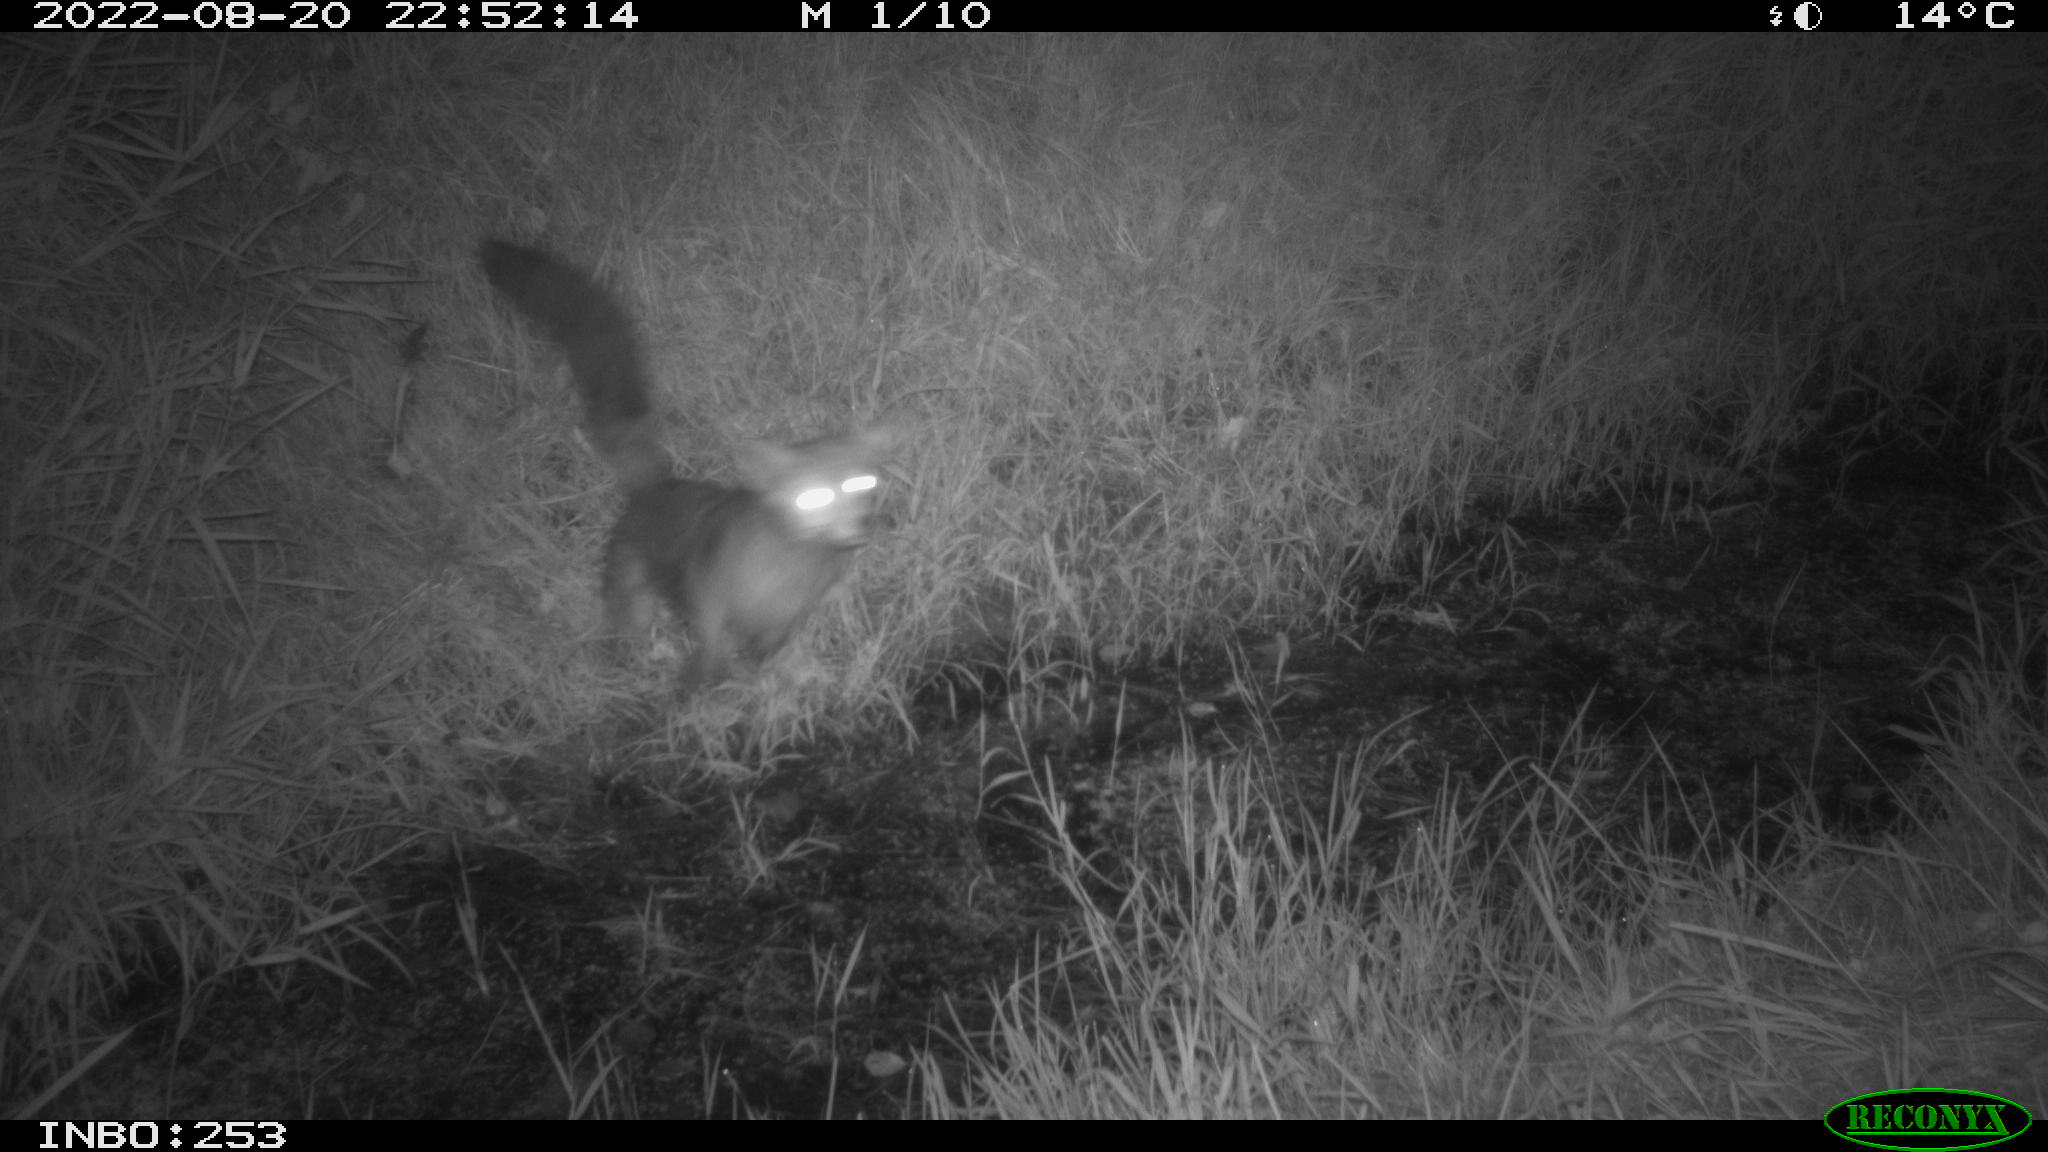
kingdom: Animalia
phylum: Chordata
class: Mammalia
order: Carnivora
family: Canidae
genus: Vulpes
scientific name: Vulpes vulpes
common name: Red fox
